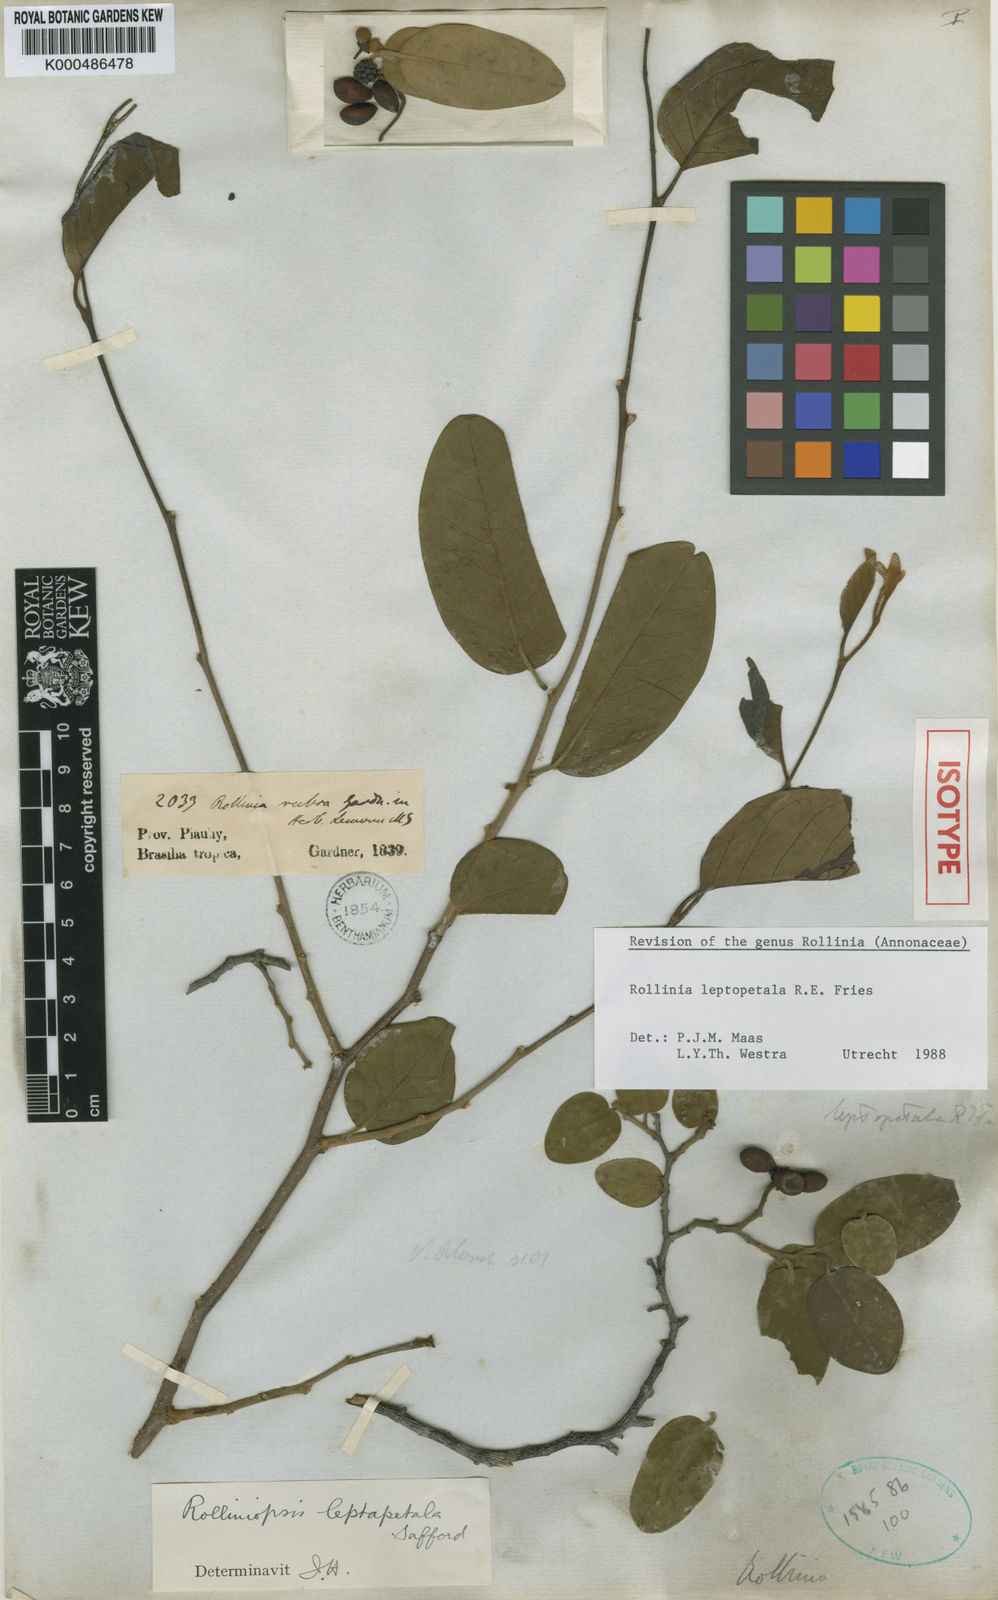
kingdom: Plantae
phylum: Tracheophyta
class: Magnoliopsida
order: Magnoliales
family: Annonaceae
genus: Annona
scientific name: Annona leptopetala
